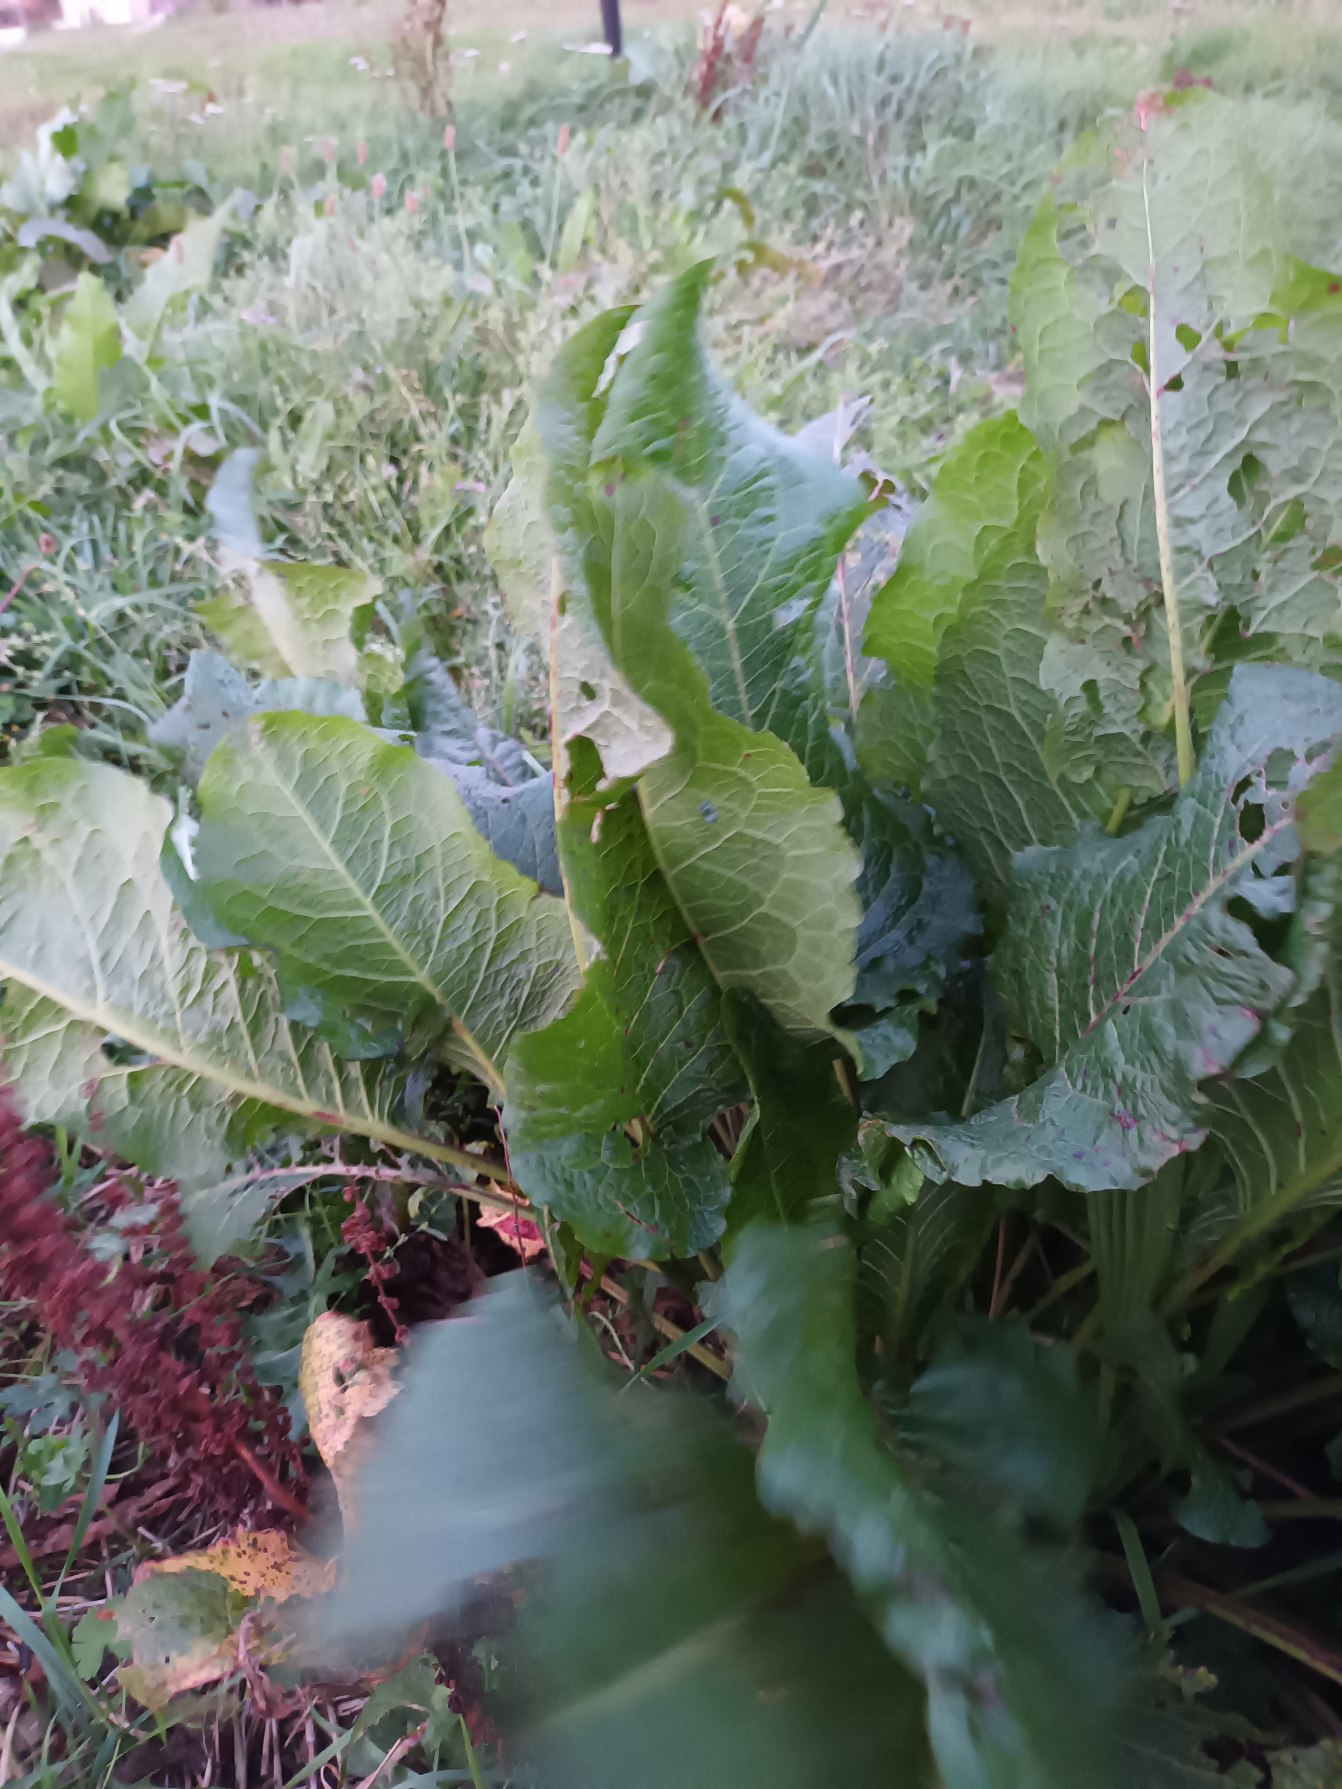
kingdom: Plantae
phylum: Tracheophyta
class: Magnoliopsida
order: Caryophyllales
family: Polygonaceae
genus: Rumex
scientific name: Rumex obtusifolius
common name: Butbladet skræppe
